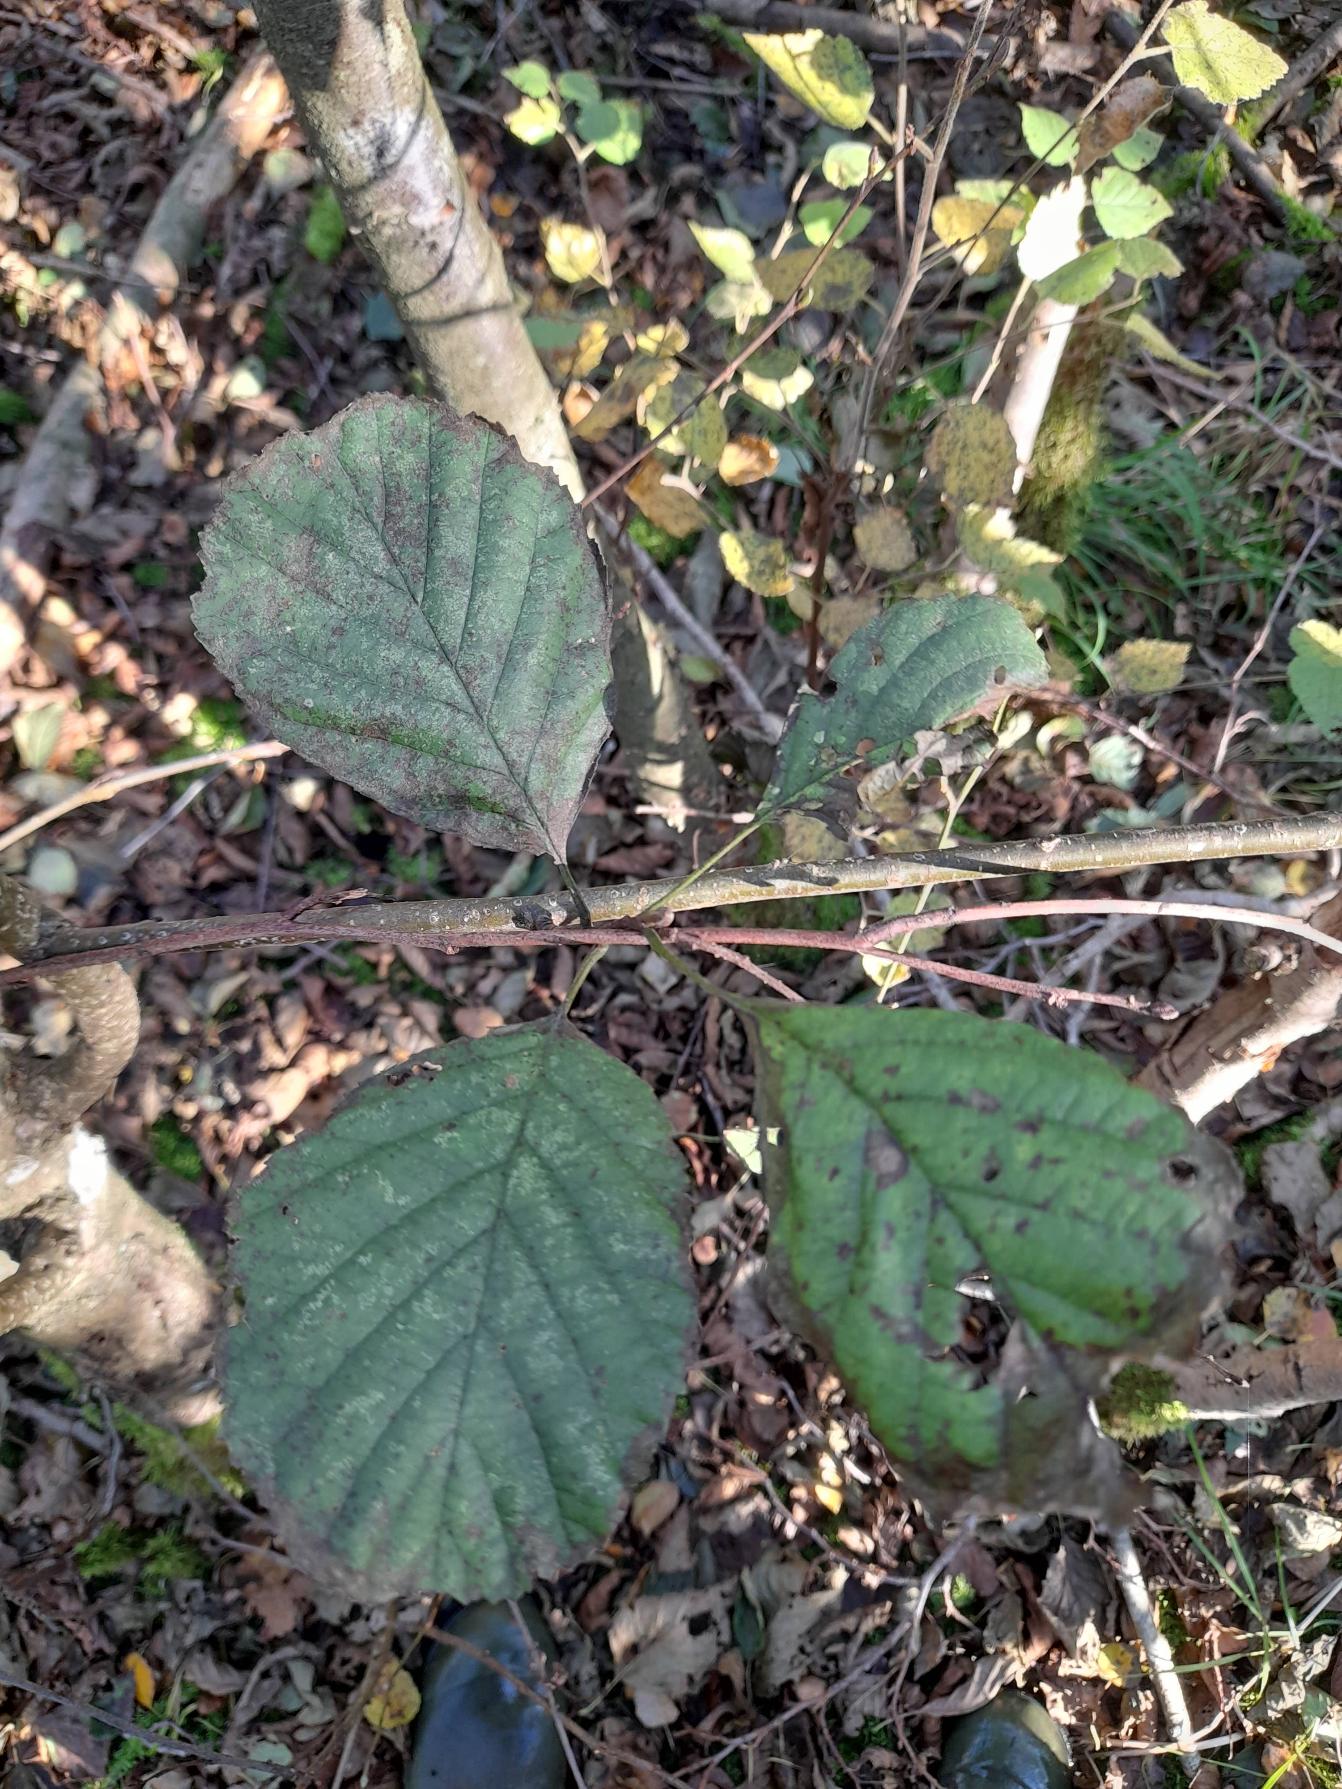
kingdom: Plantae
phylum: Tracheophyta
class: Magnoliopsida
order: Fagales
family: Betulaceae
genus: Alnus
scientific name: Alnus glutinosa
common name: Rød-el
